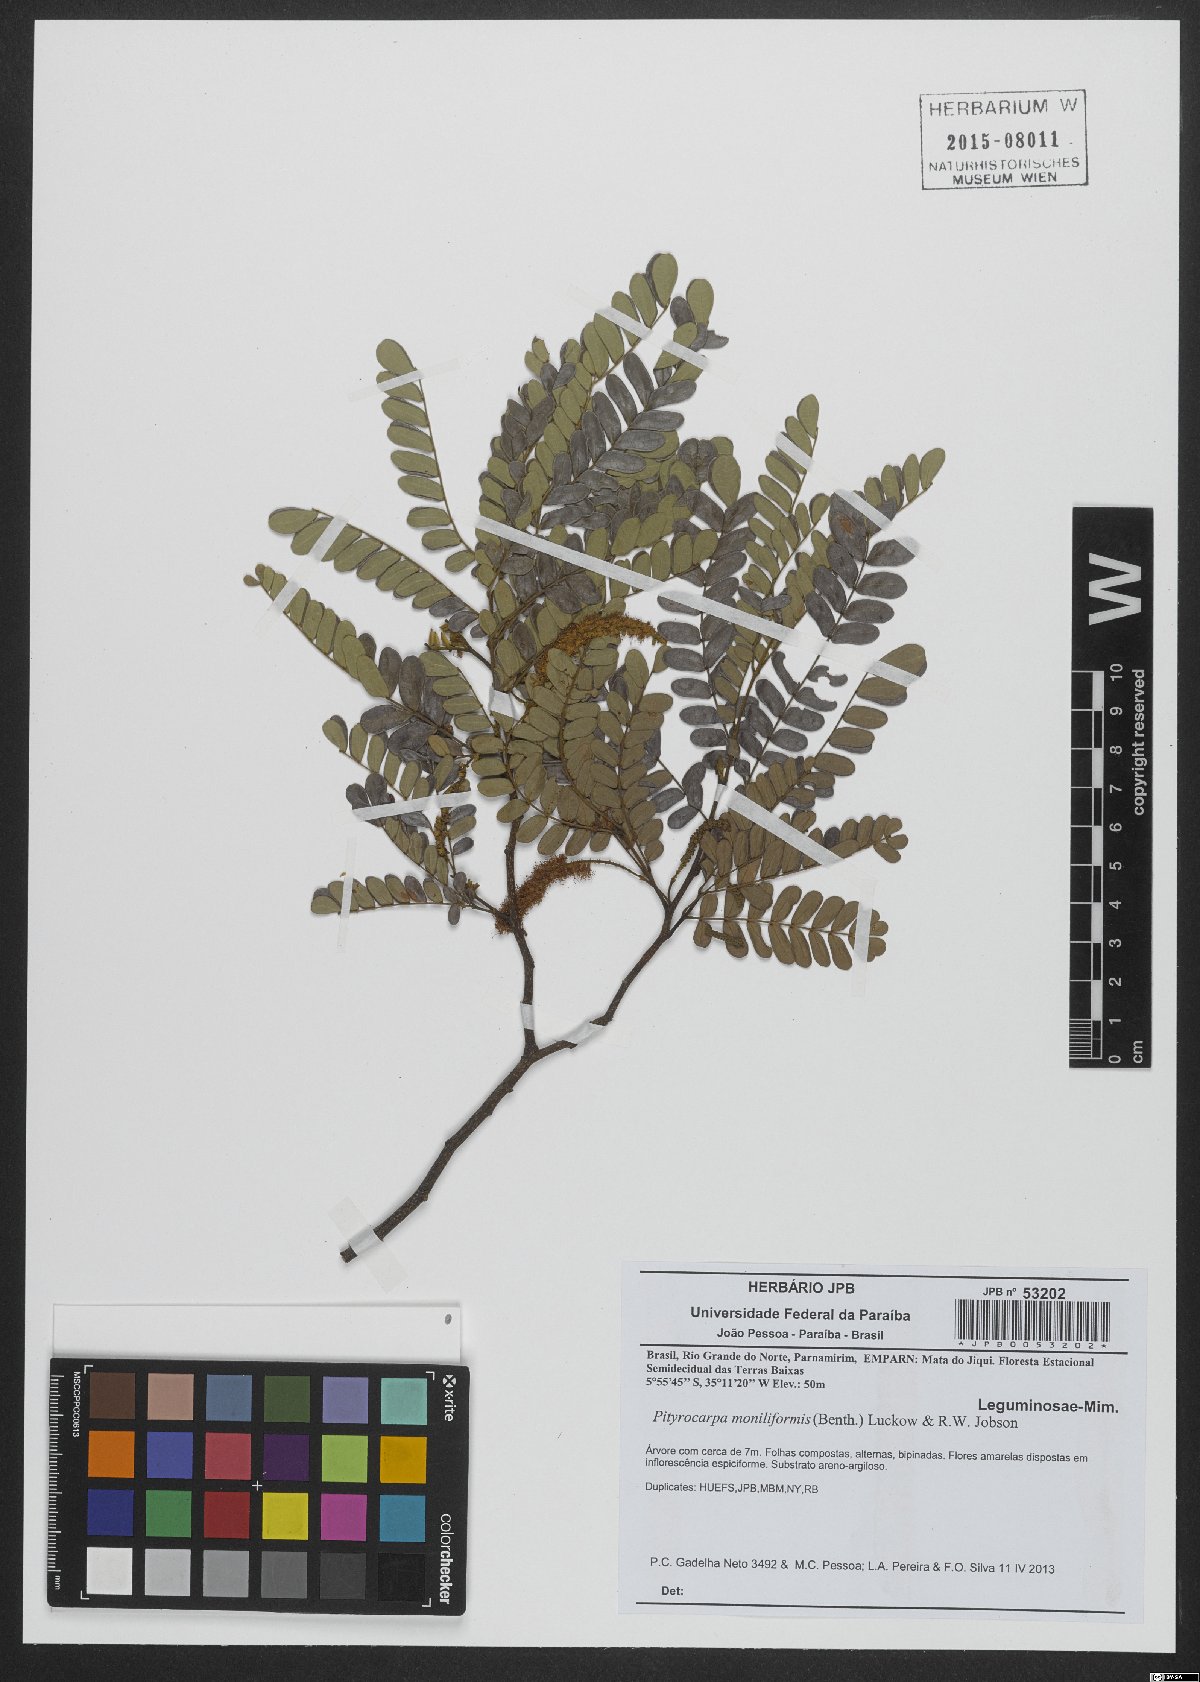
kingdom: Plantae
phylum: Tracheophyta
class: Magnoliopsida
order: Fabales
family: Fabaceae
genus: Pityrocarpa
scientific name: Pityrocarpa moniliformis
